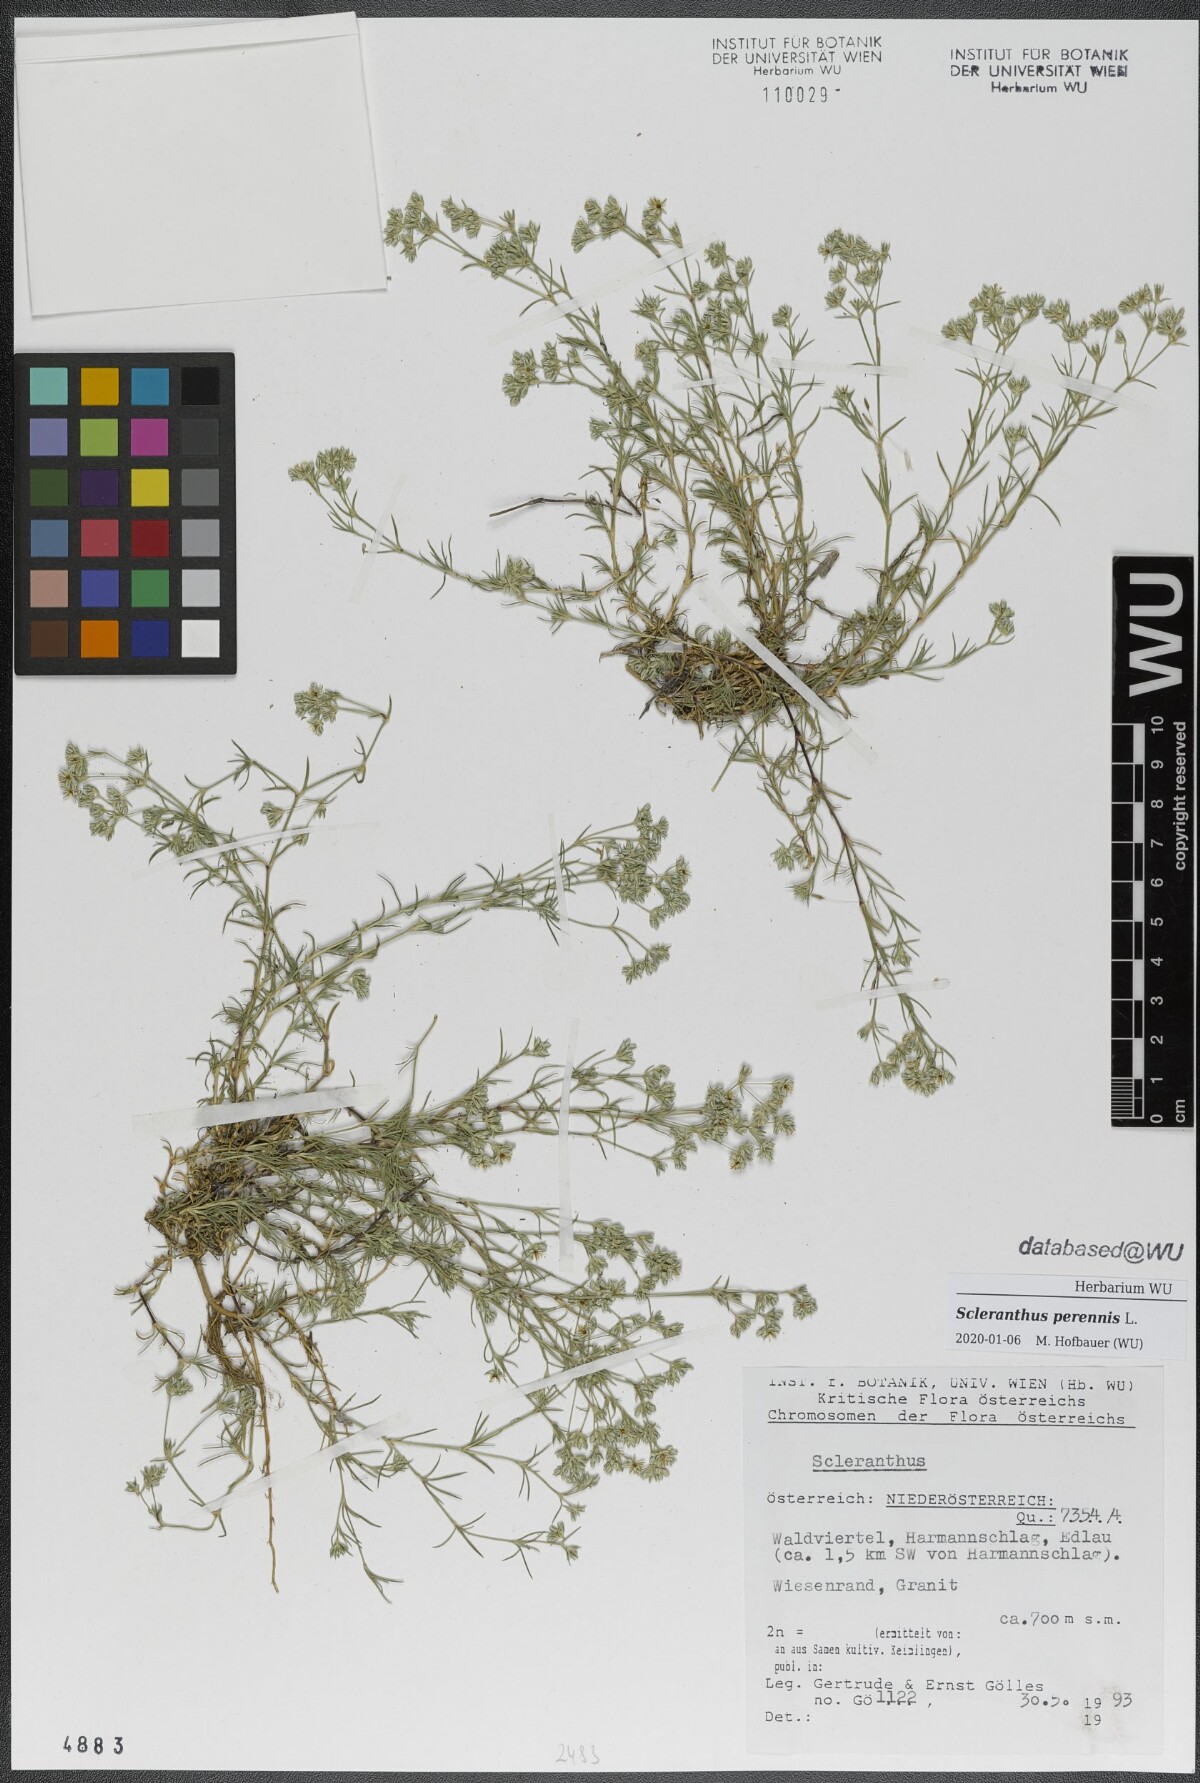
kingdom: Plantae
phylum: Tracheophyta
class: Magnoliopsida
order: Caryophyllales
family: Caryophyllaceae
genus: Scleranthus
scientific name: Scleranthus perennis
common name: Perennial knawel
